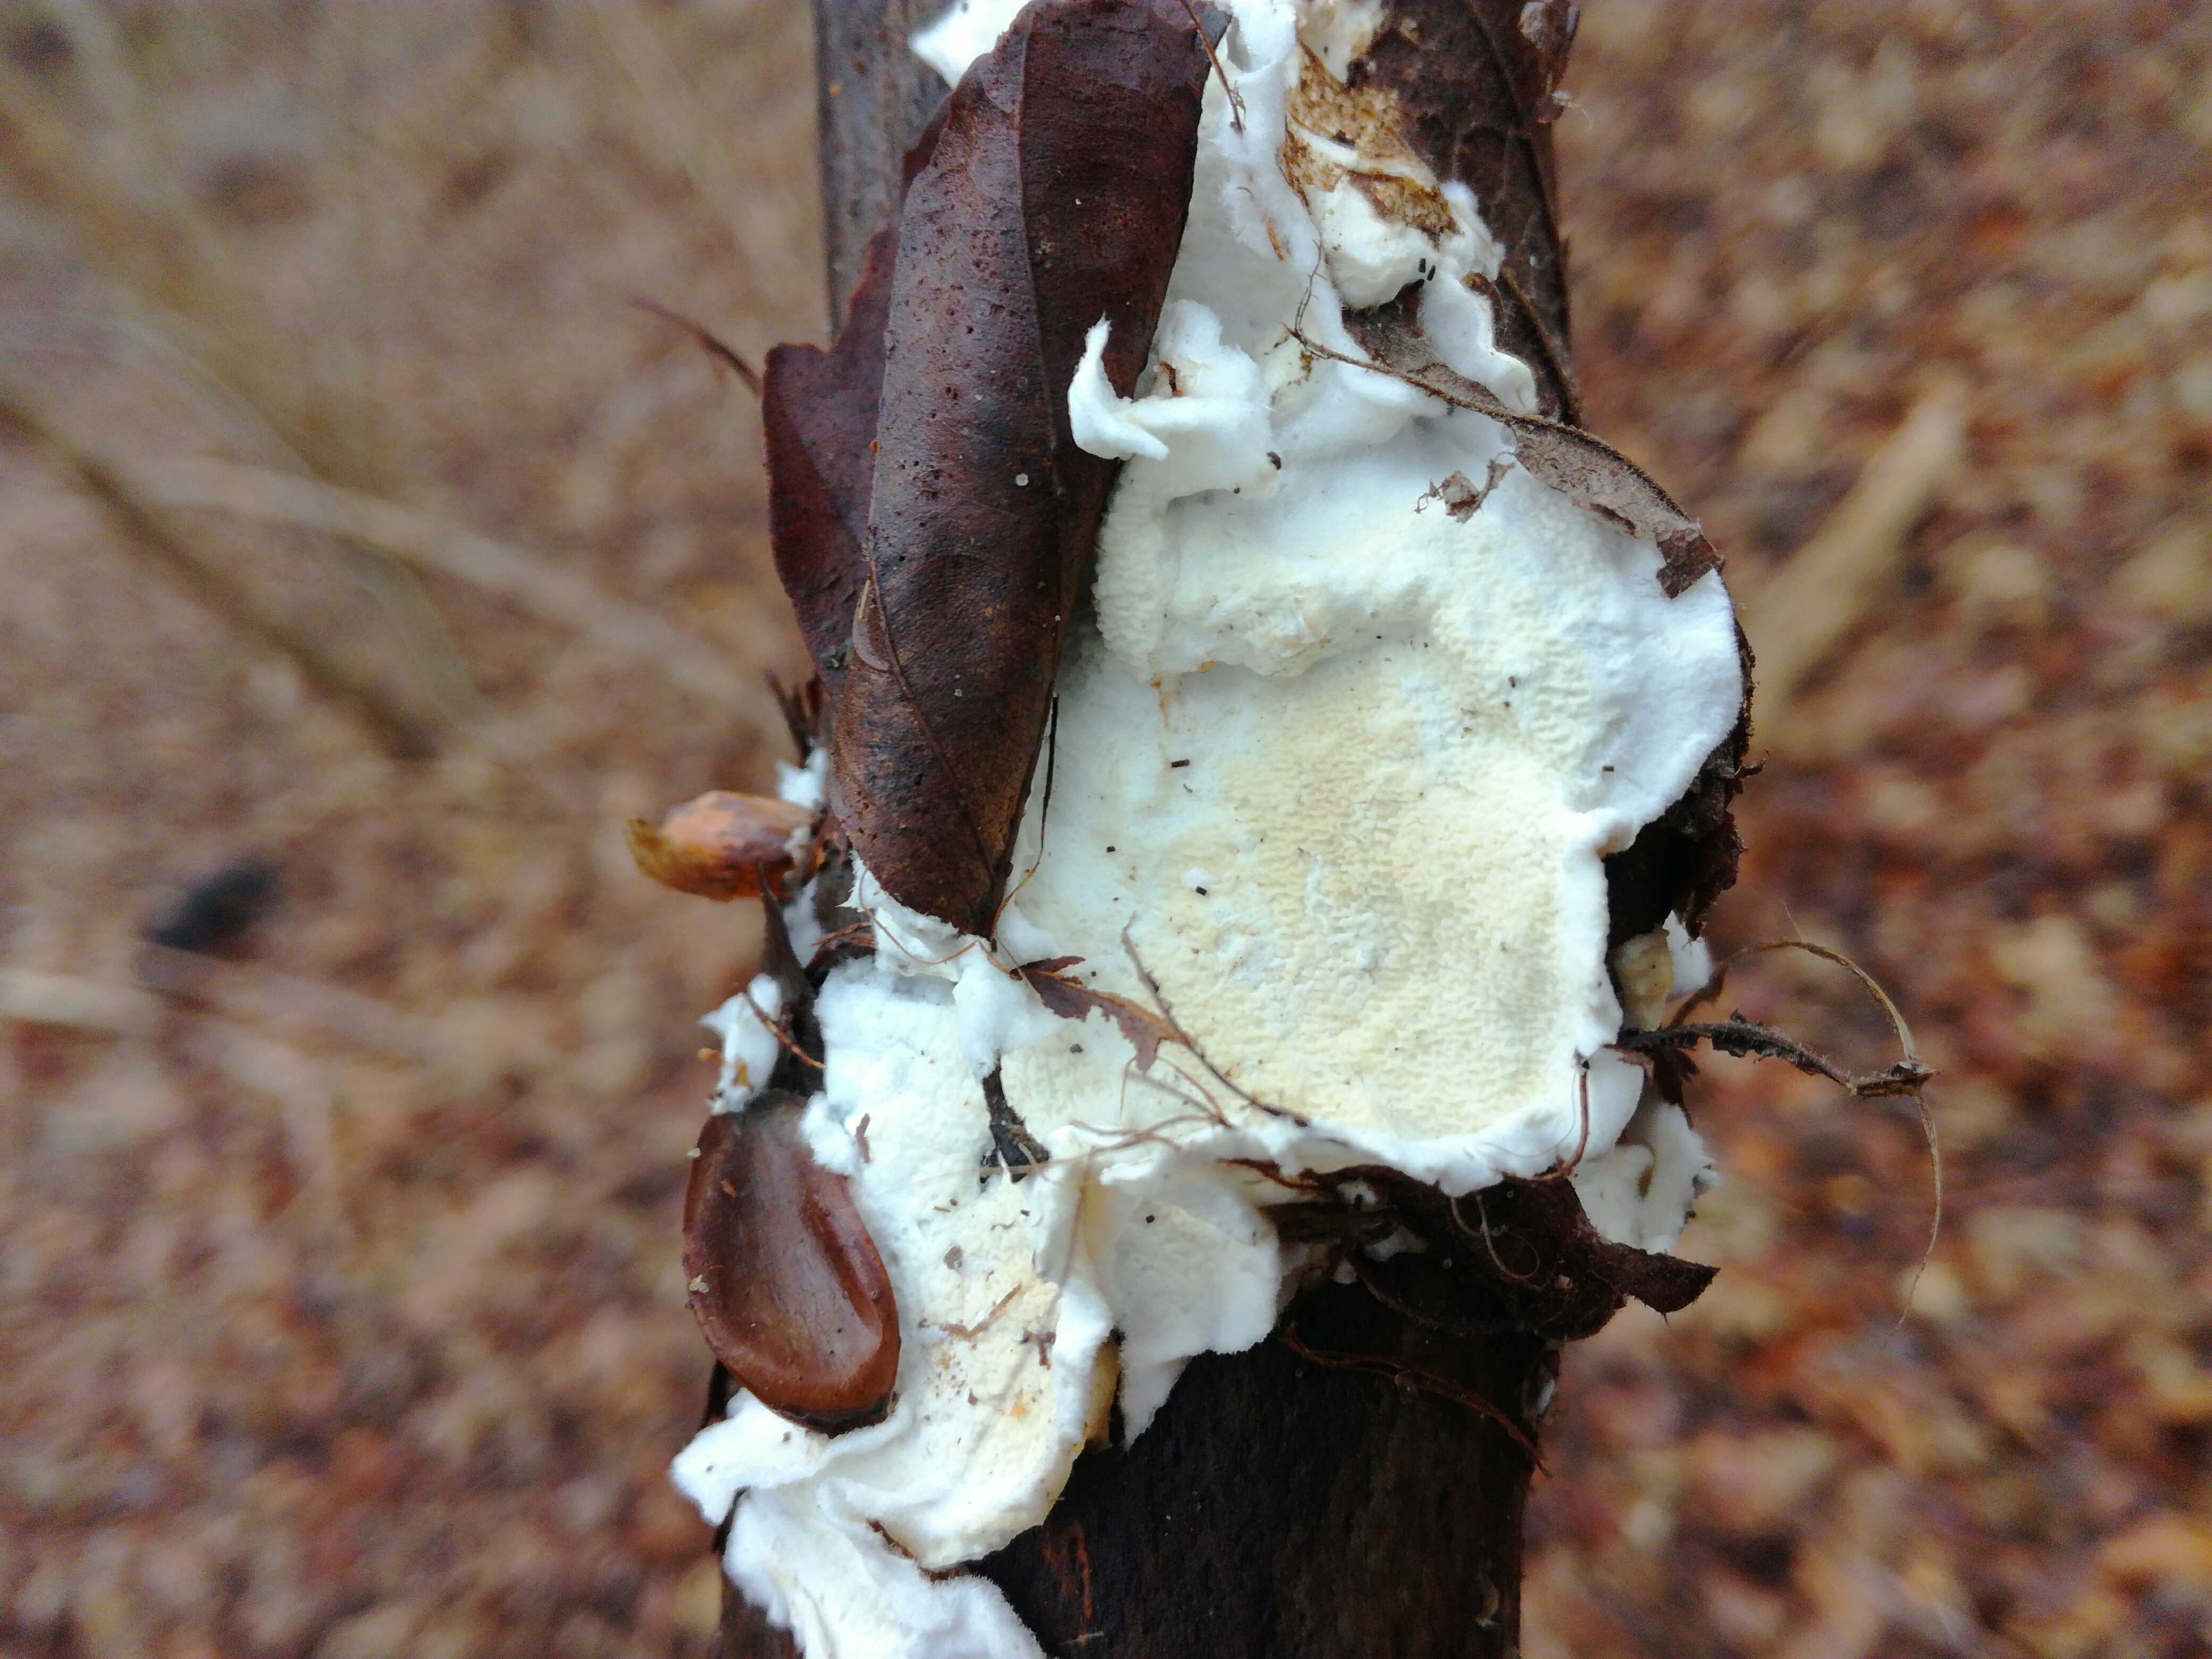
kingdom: Fungi
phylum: Basidiomycota
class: Agaricomycetes
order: Polyporales
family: Irpicaceae
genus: Byssomerulius
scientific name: Byssomerulius corium
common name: læder-åresvamp
